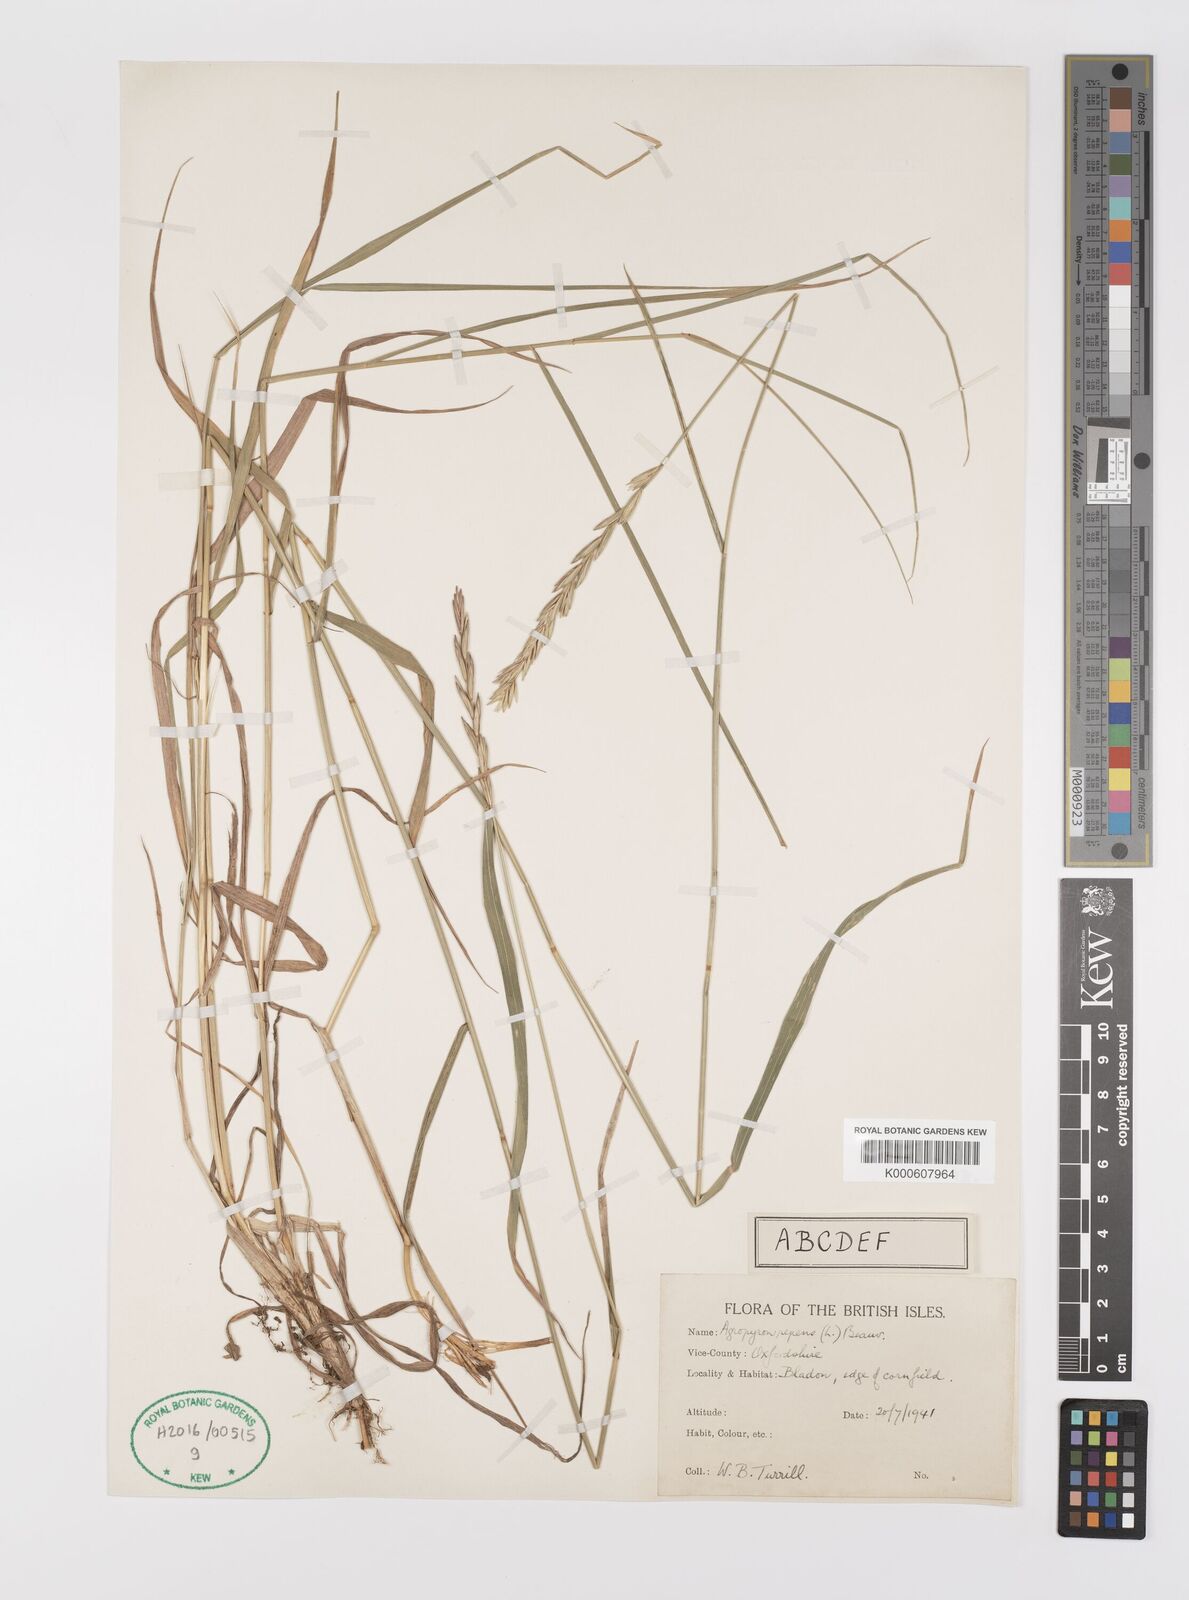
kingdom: Plantae
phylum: Tracheophyta
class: Liliopsida
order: Poales
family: Poaceae
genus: Elymus
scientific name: Elymus repens
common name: Quackgrass
